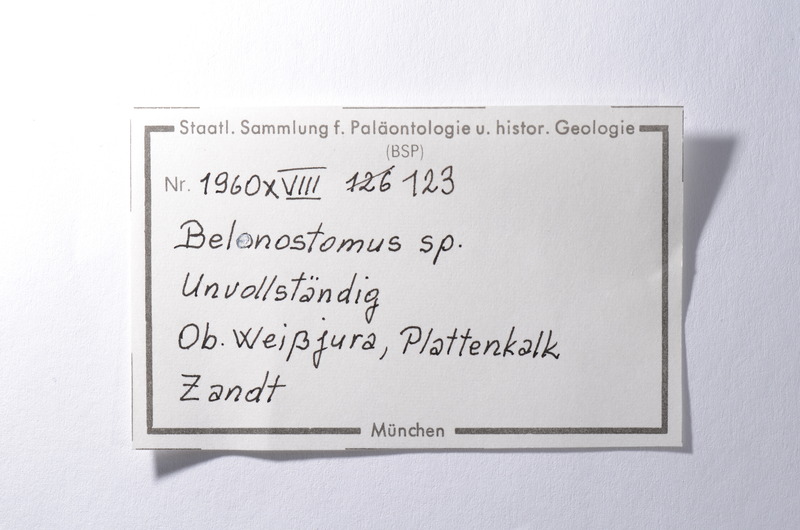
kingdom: Animalia
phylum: Chordata
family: Aspidorhynchidae
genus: Belonostomus
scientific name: Belonostomus
